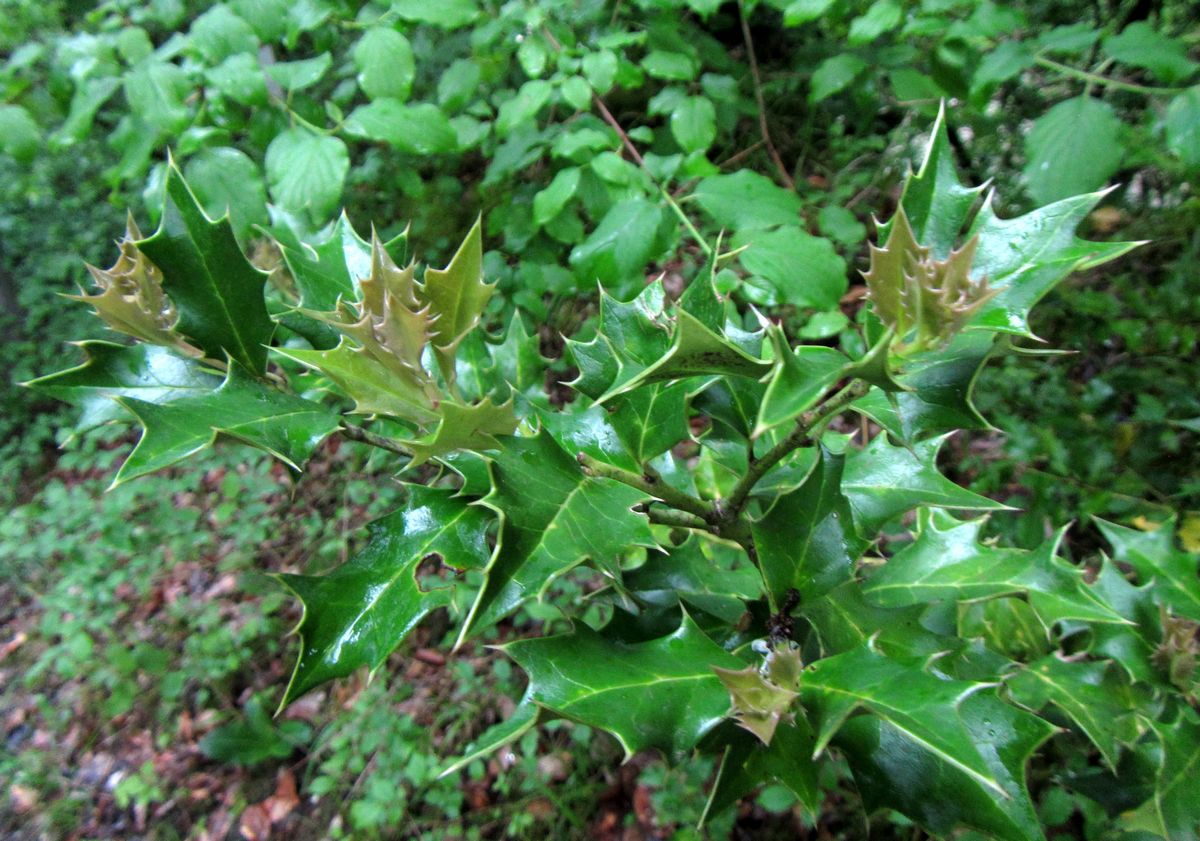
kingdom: Plantae
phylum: Tracheophyta
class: Magnoliopsida
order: Aquifoliales
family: Aquifoliaceae
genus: Ilex
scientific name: Ilex colchica
